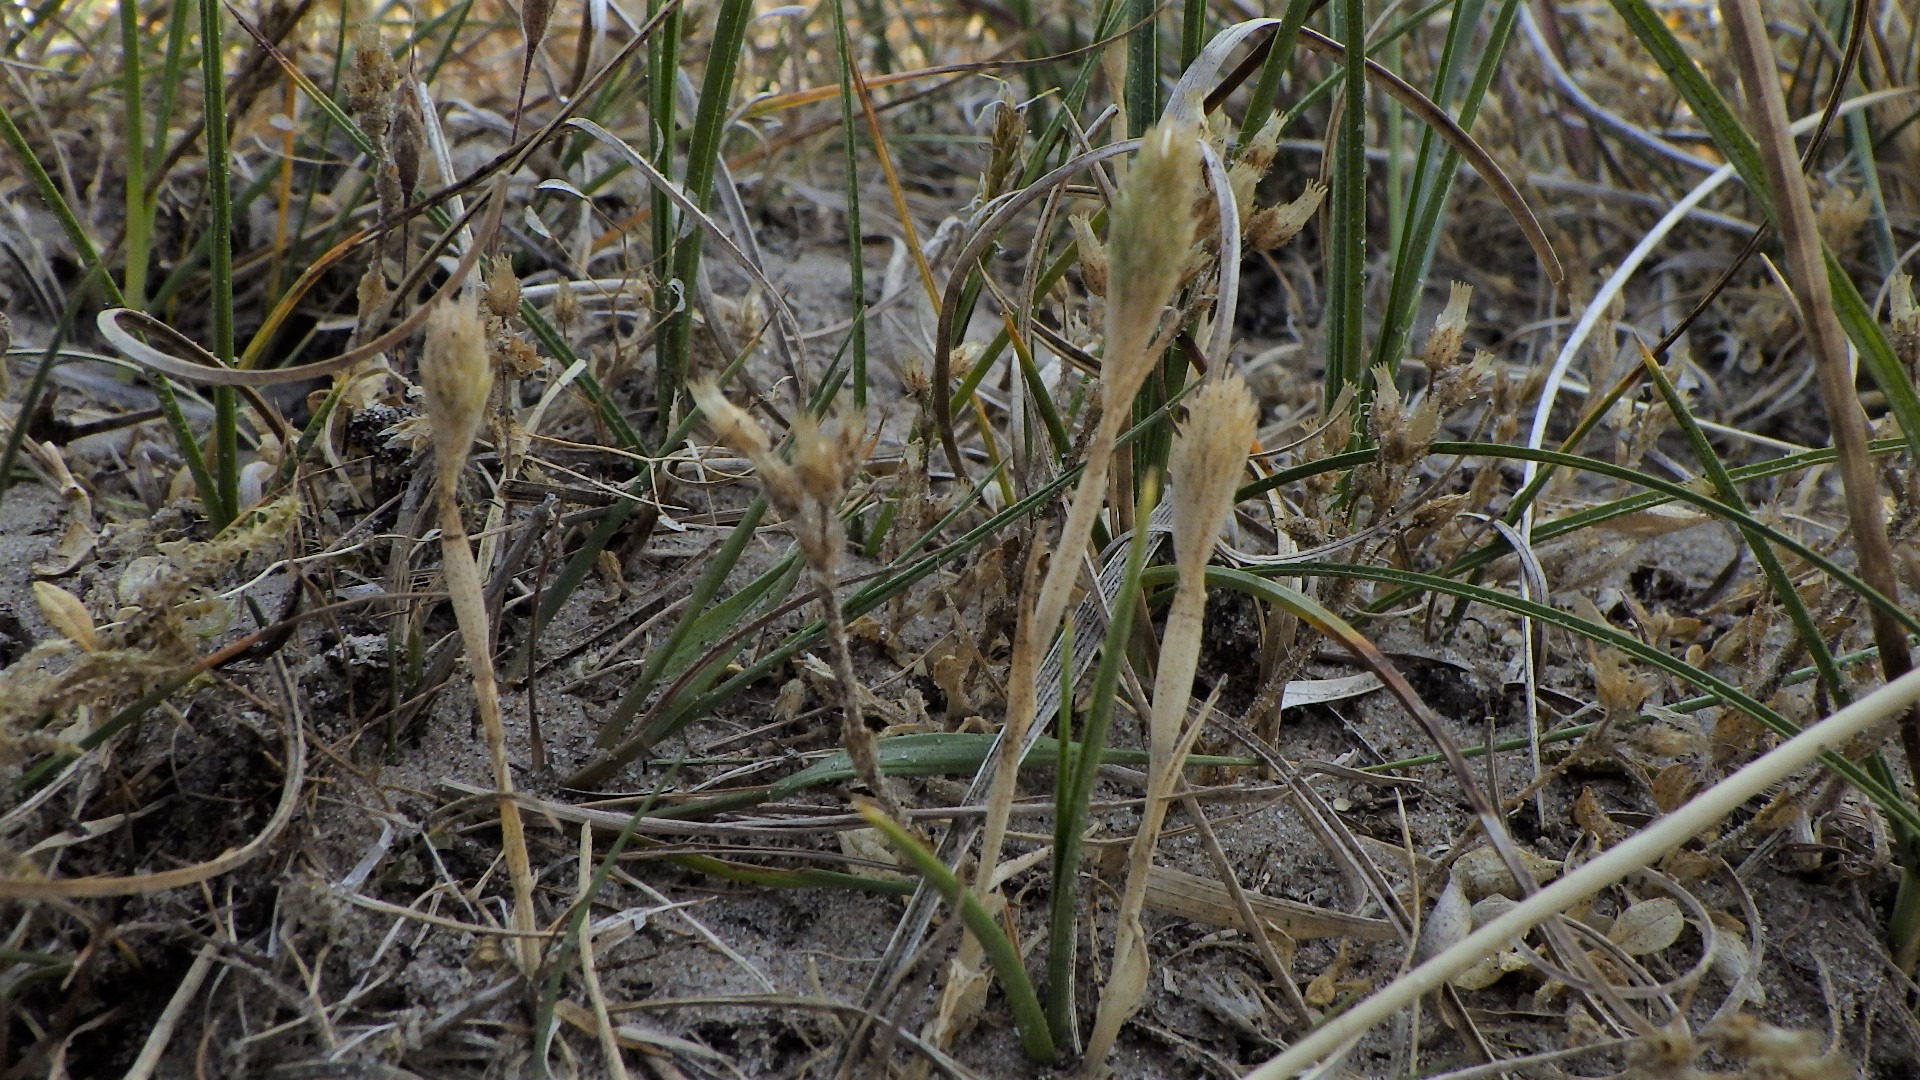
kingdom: Plantae
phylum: Tracheophyta
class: Liliopsida
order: Poales
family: Poaceae
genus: Phleum
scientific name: Phleum arenarium
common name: Sand-rottehale
